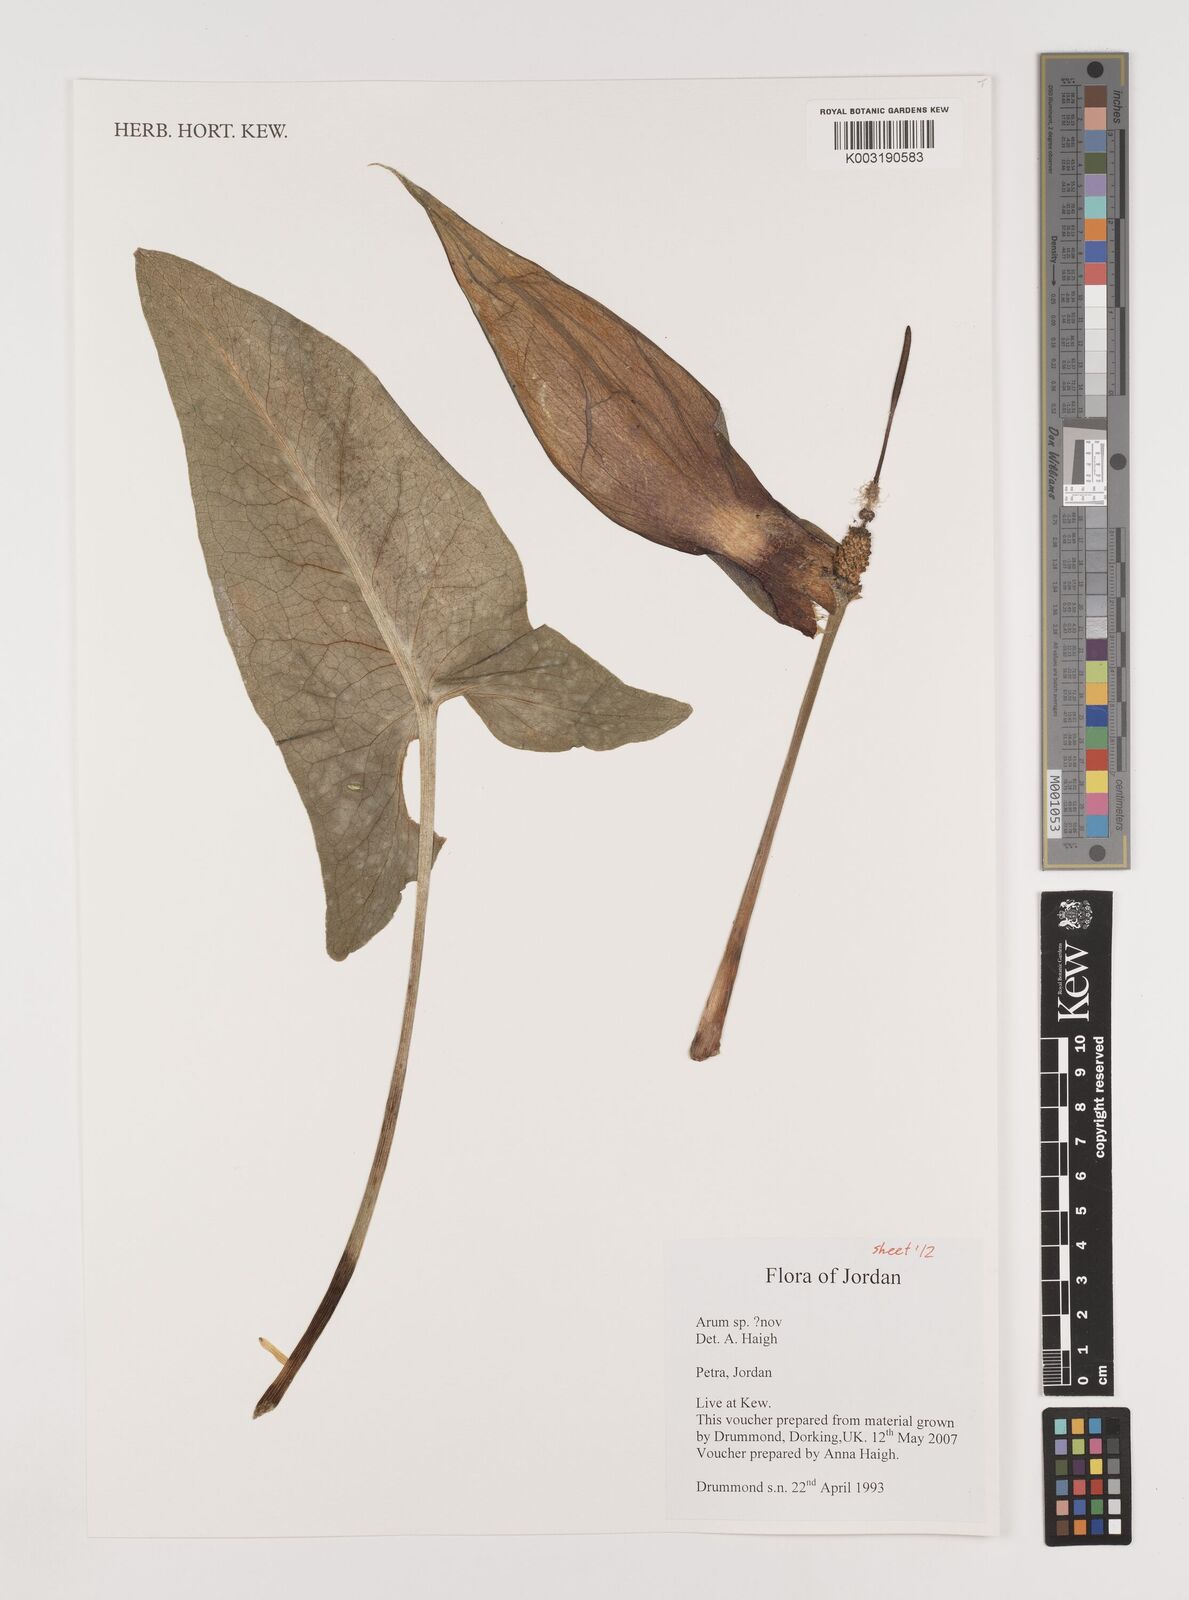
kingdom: Plantae
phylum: Tracheophyta
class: Liliopsida
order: Alismatales
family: Araceae
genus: Arum
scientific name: Arum
